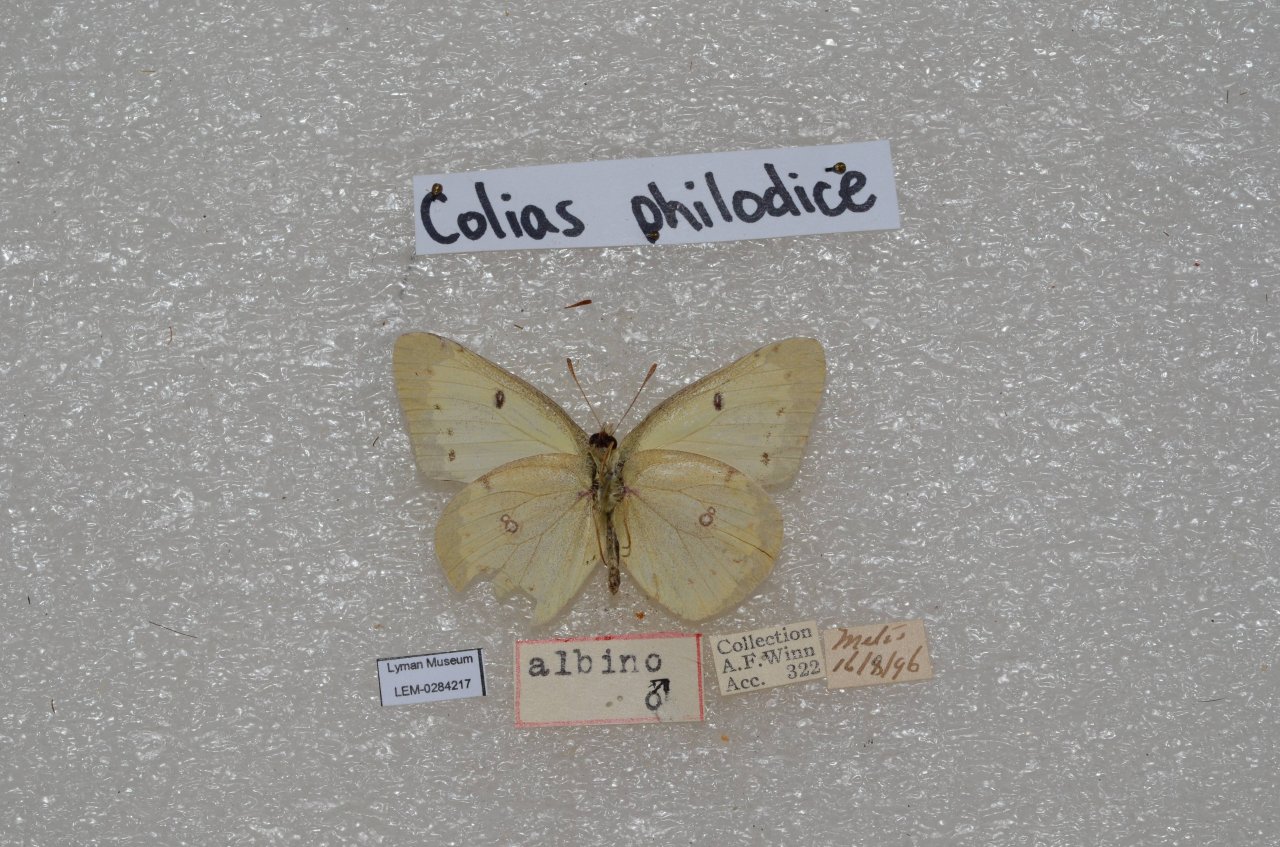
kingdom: Animalia
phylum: Arthropoda
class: Insecta
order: Lepidoptera
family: Pieridae
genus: Colias
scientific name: Colias philodice
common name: Clouded Sulphur
